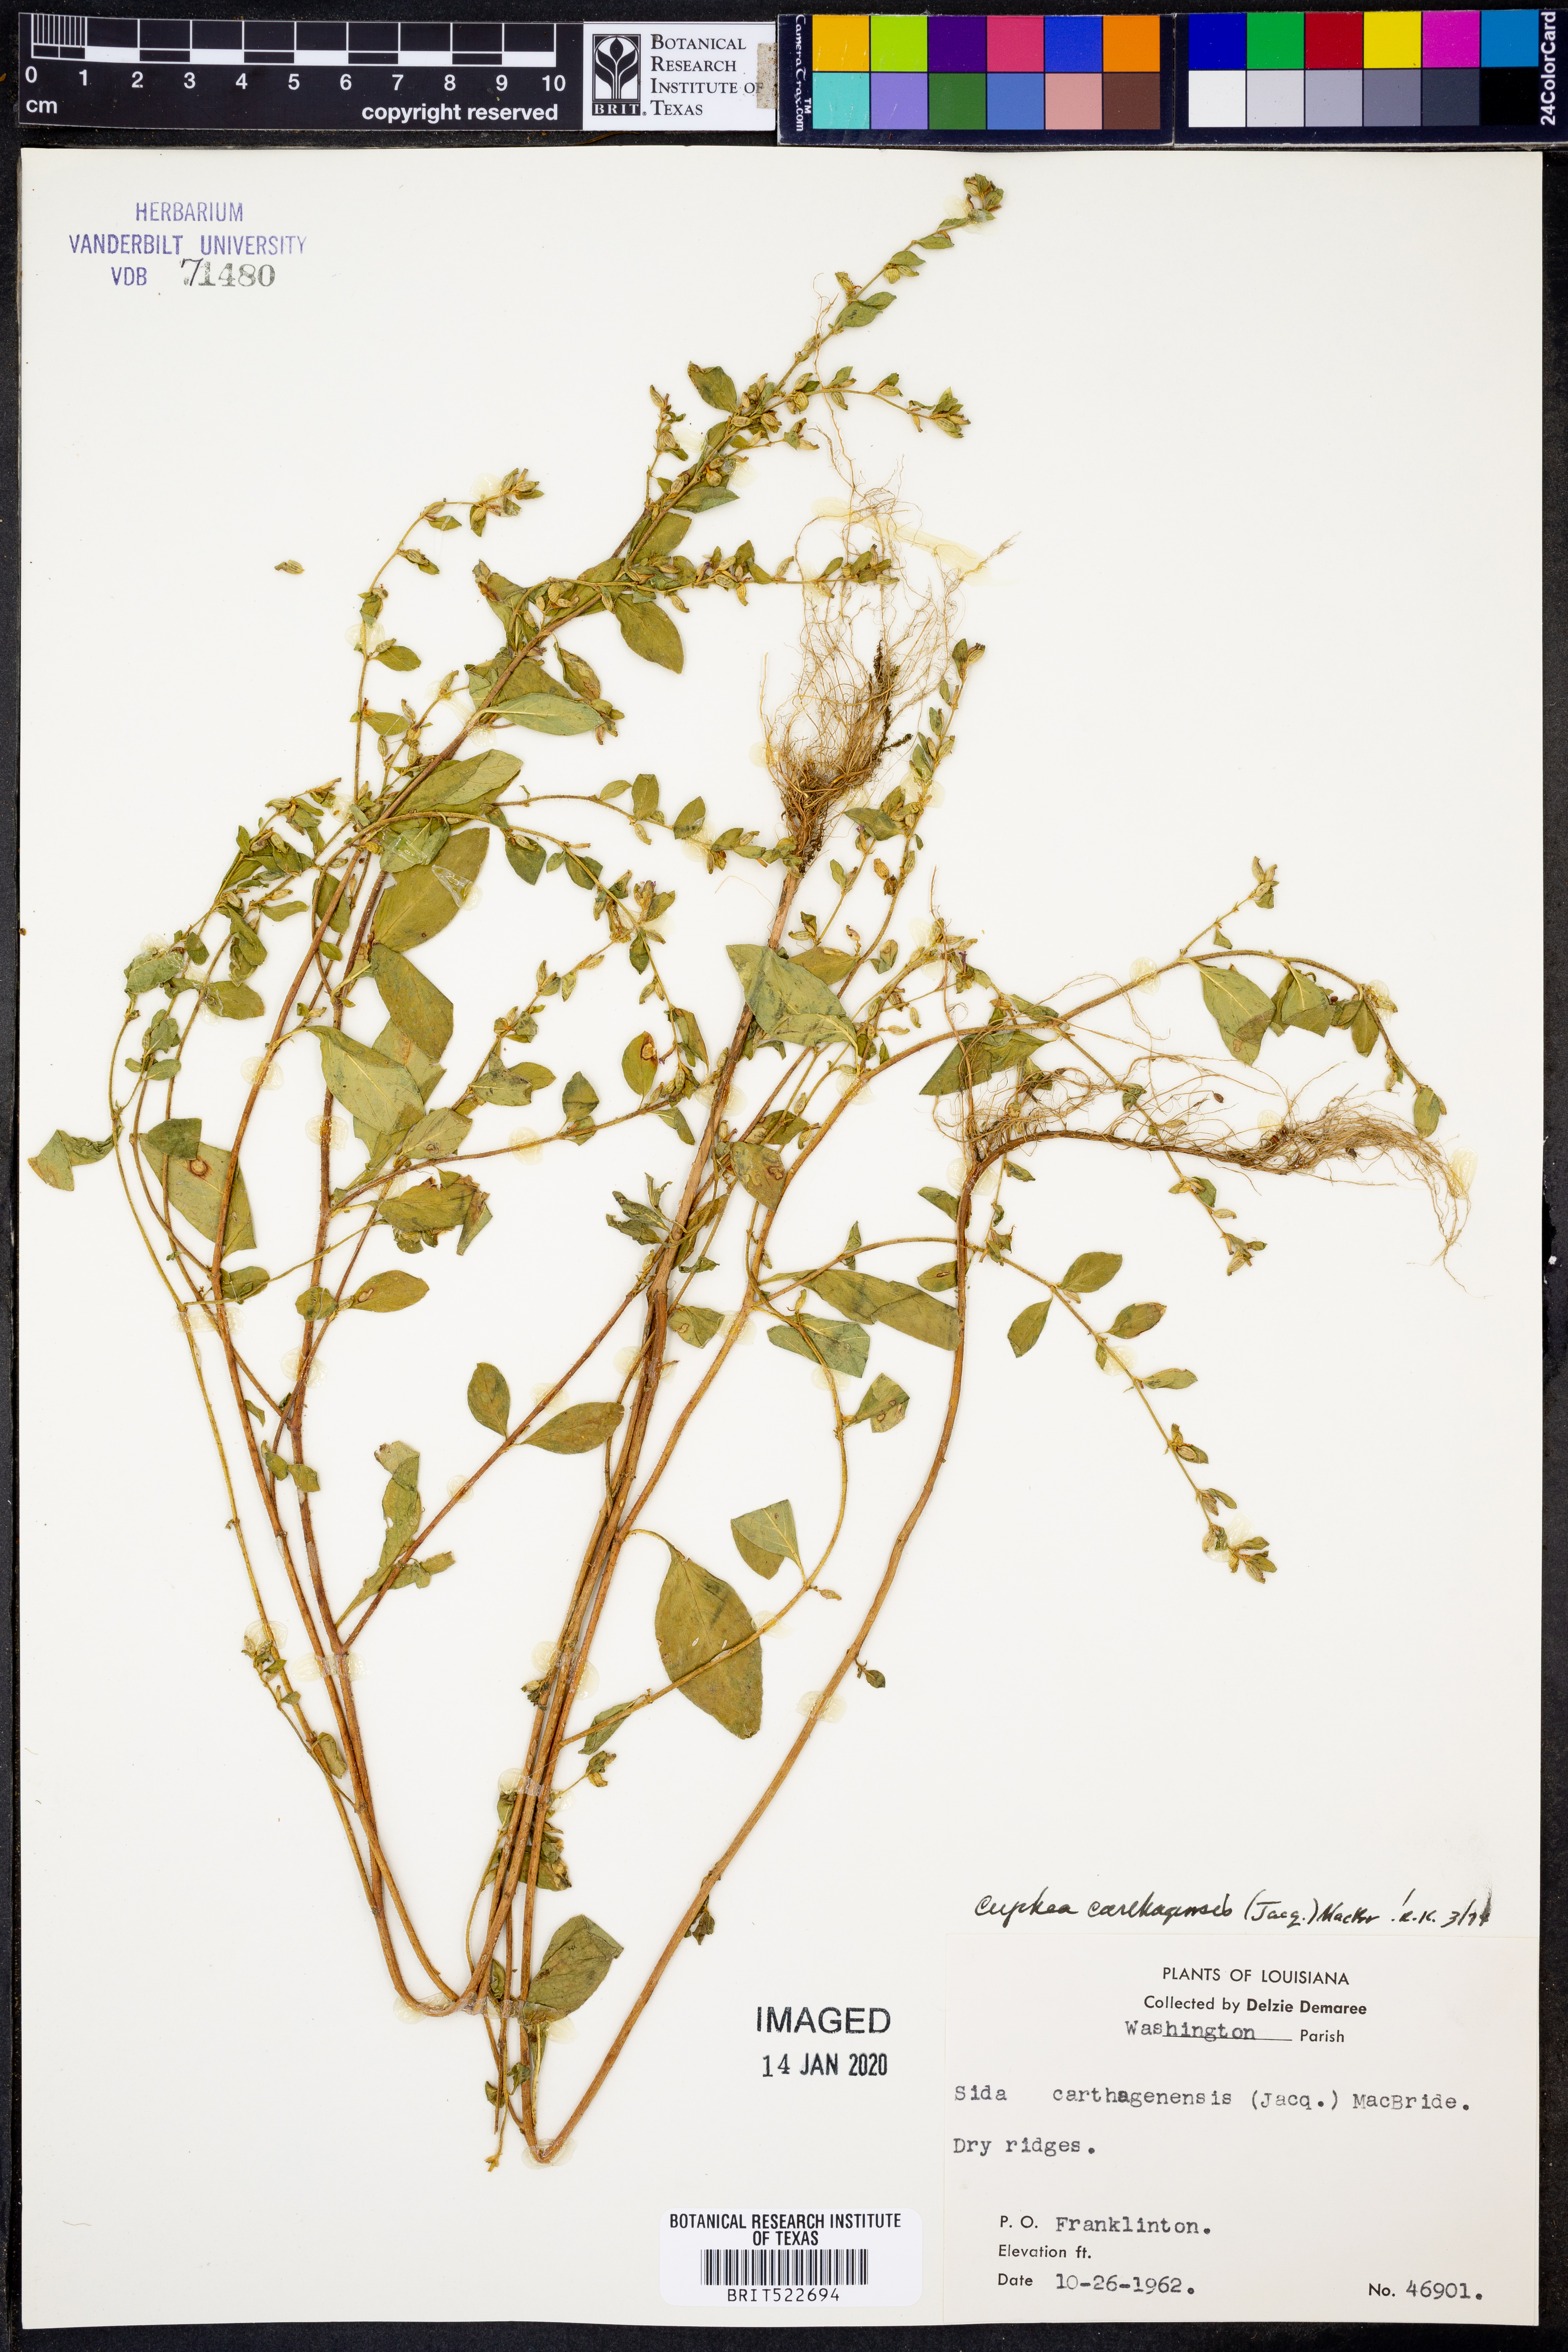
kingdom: Plantae
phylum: Tracheophyta
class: Magnoliopsida
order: Myrtales
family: Lythraceae
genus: Cuphea
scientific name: Cuphea carthagenensis
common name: Colombian waxweed
